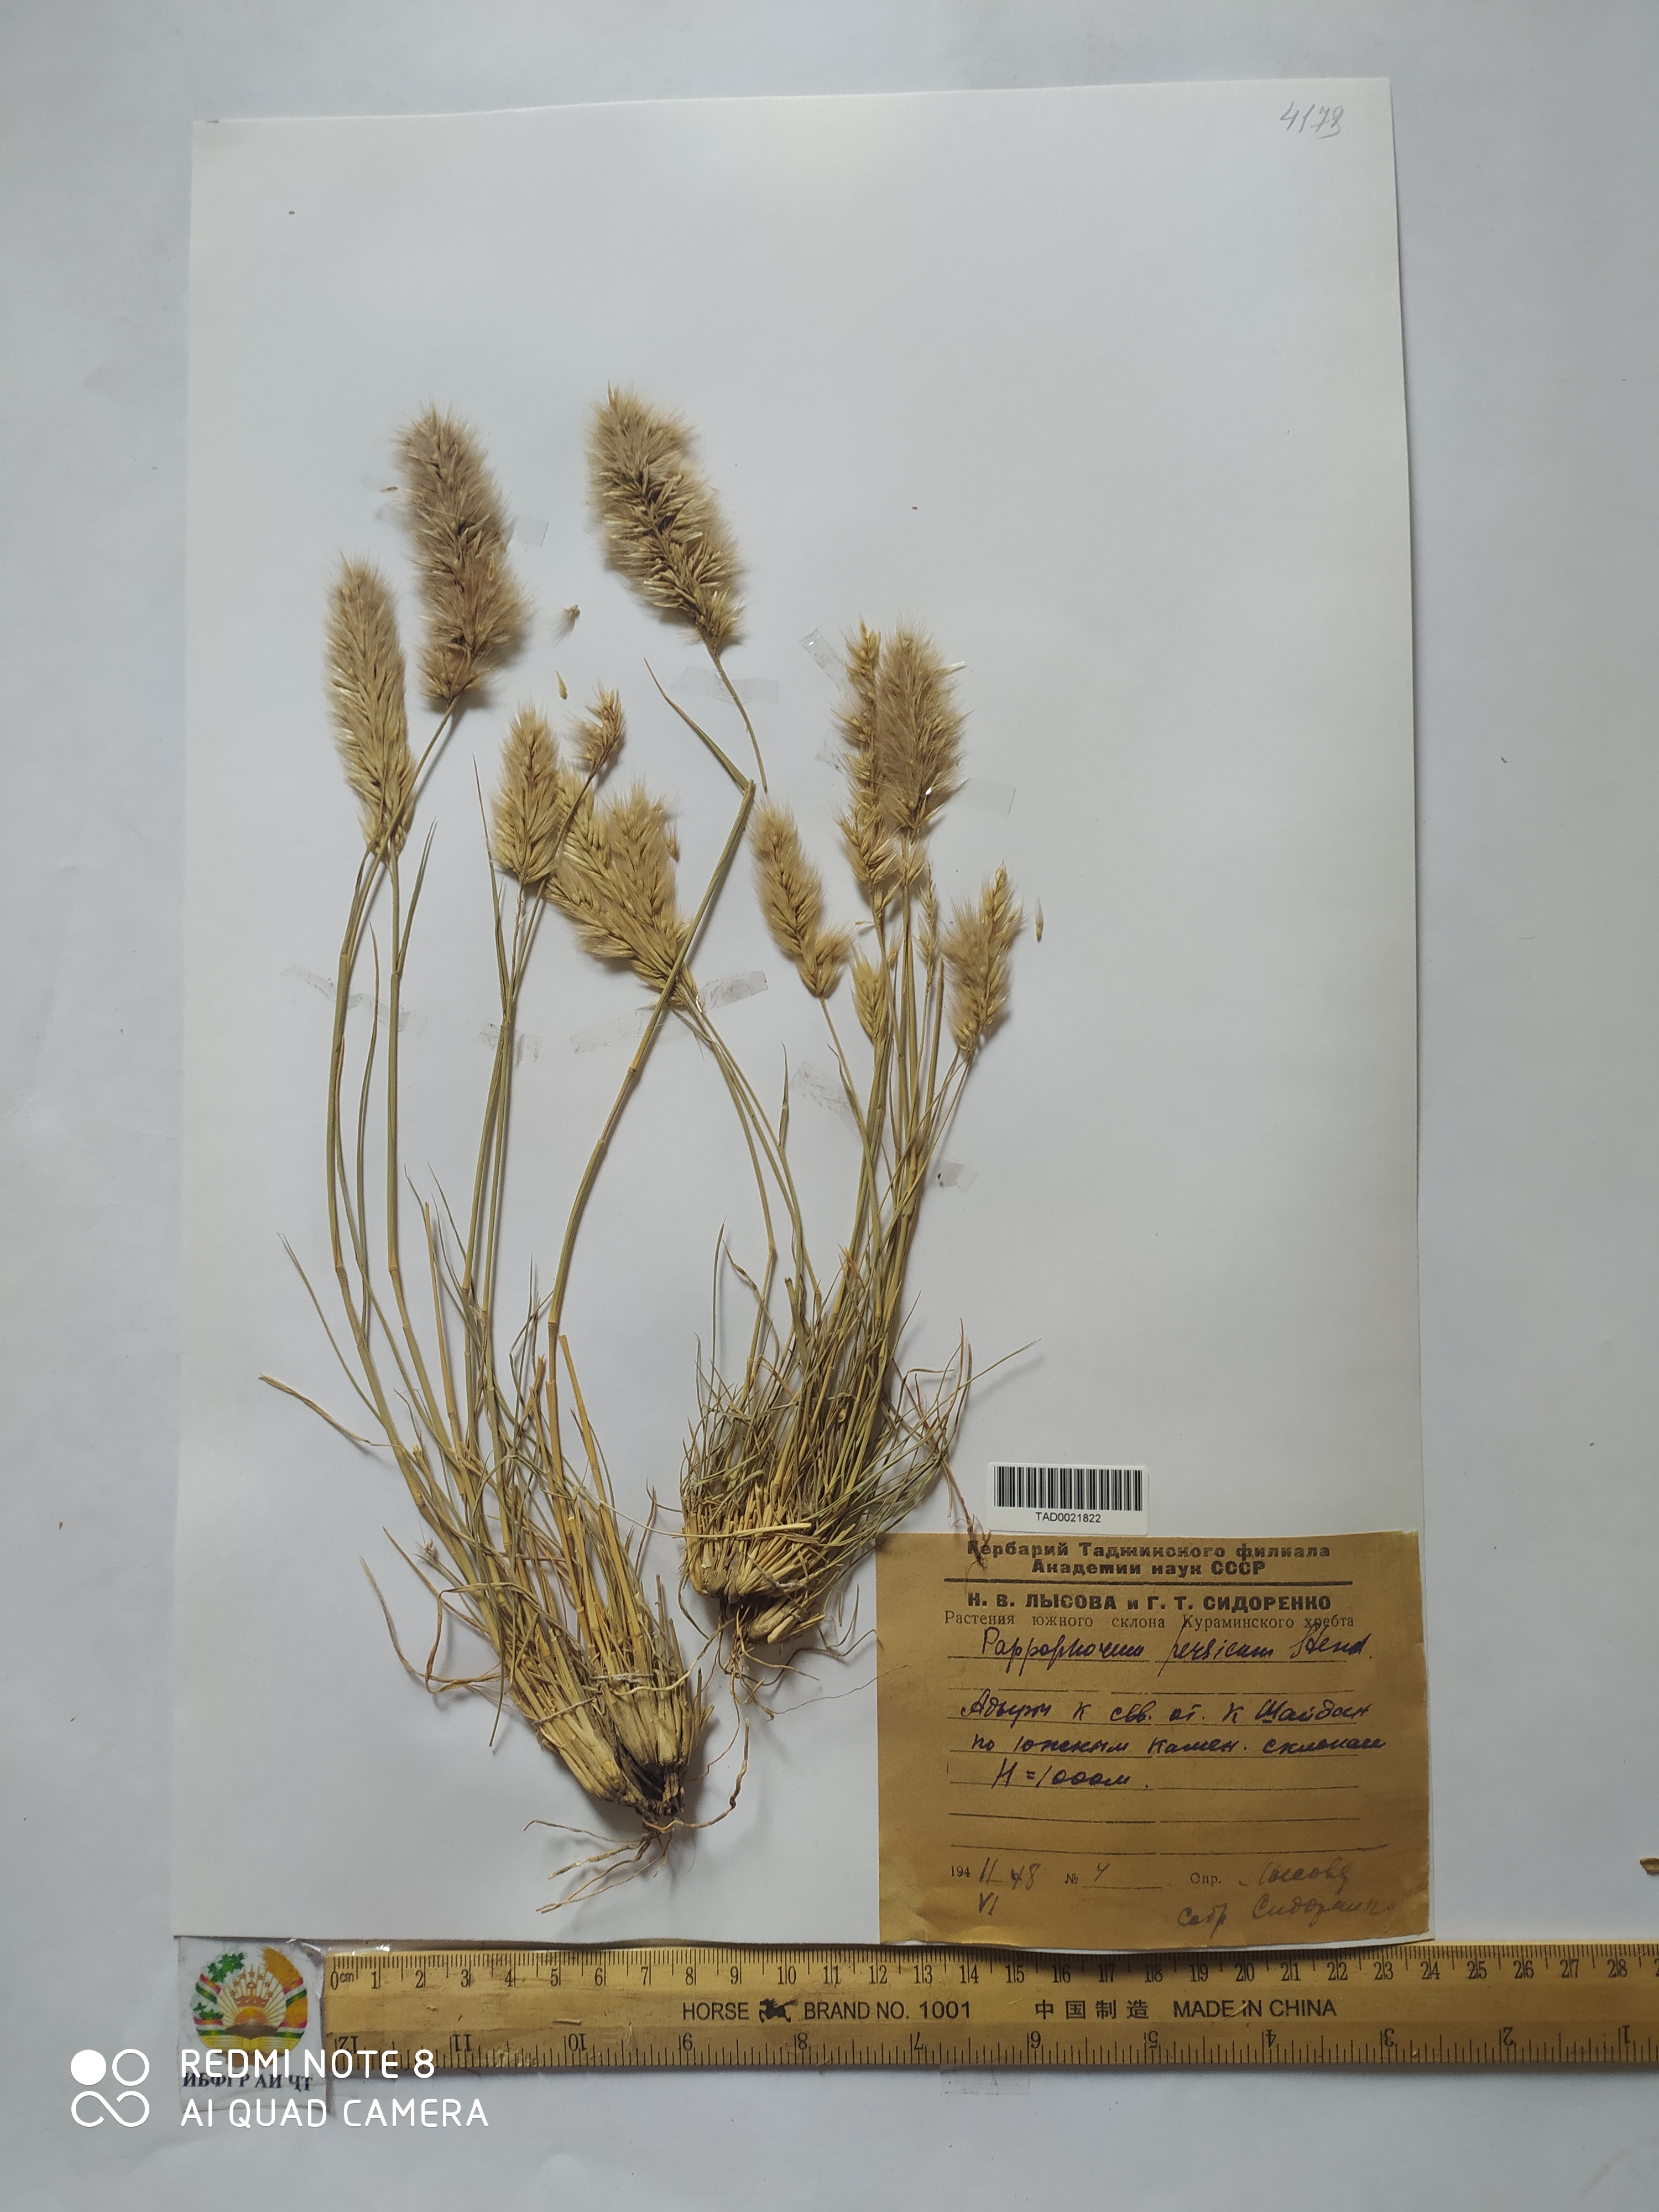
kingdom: Plantae
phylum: Tracheophyta
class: Liliopsida
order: Poales
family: Poaceae
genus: Enneapogon
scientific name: Enneapogon persicus
